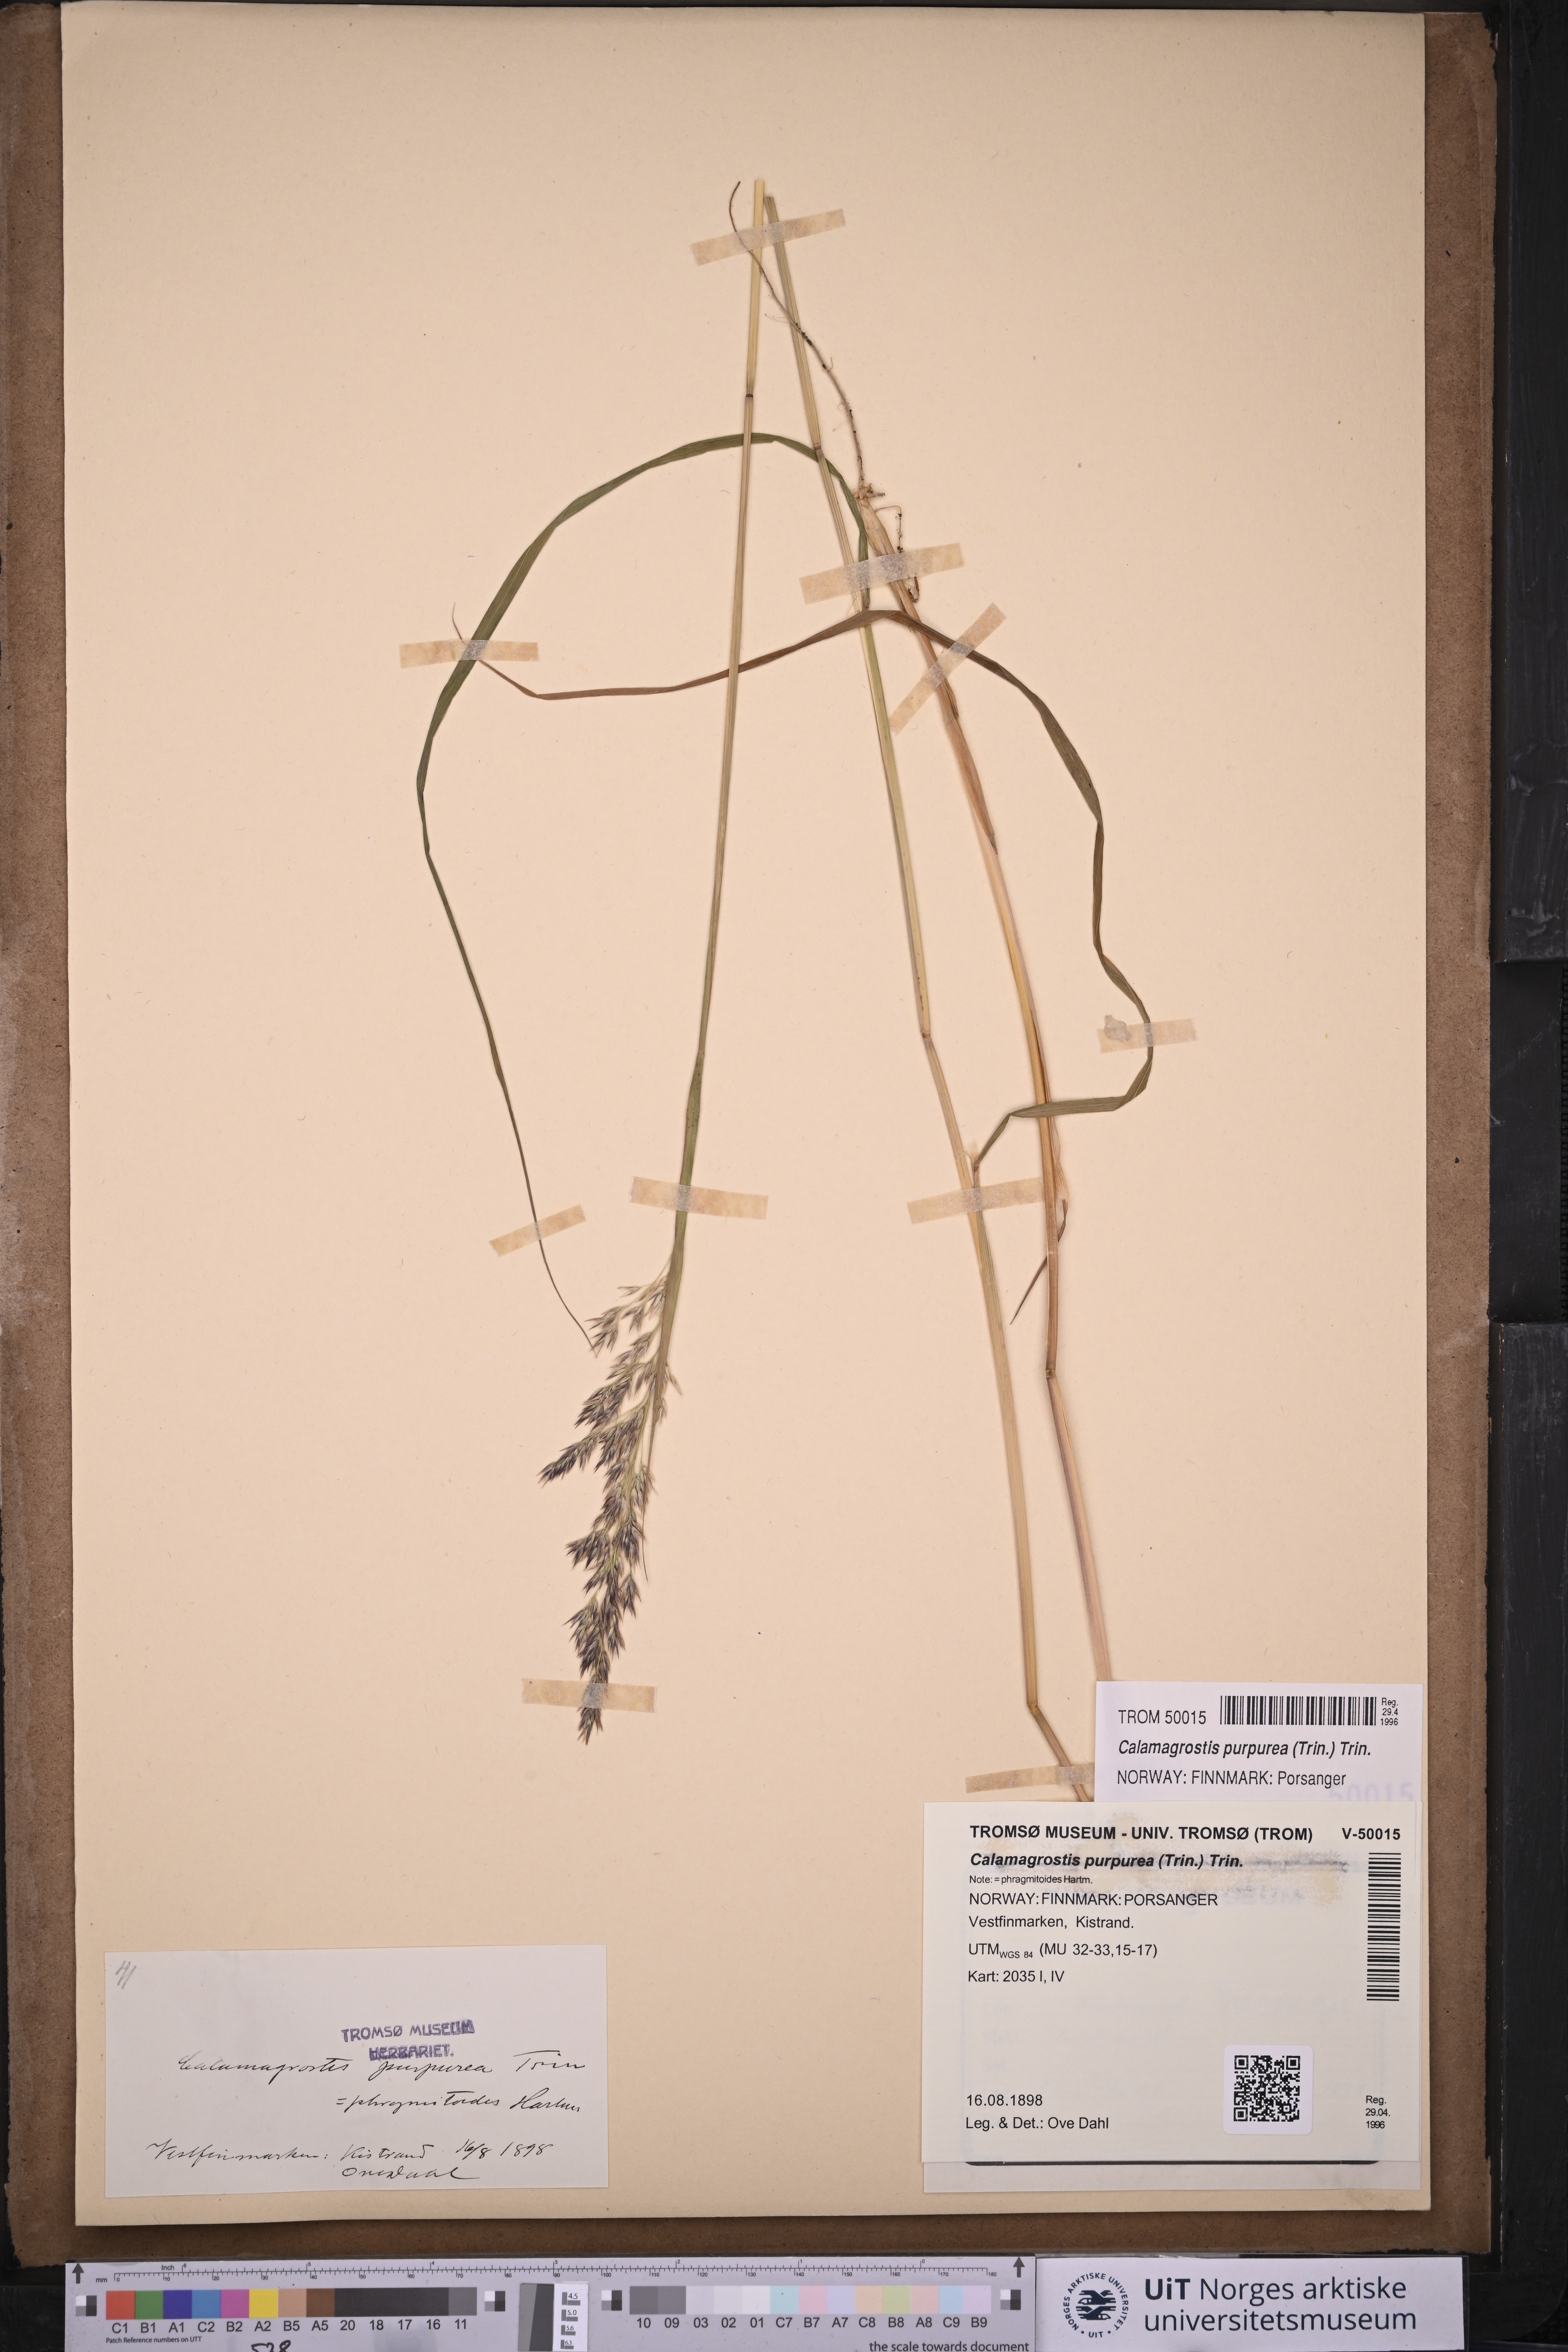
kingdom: Plantae
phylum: Tracheophyta
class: Liliopsida
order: Poales
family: Poaceae
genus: Calamagrostis
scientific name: Calamagrostis purpurea
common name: Scandinavian small-reed
